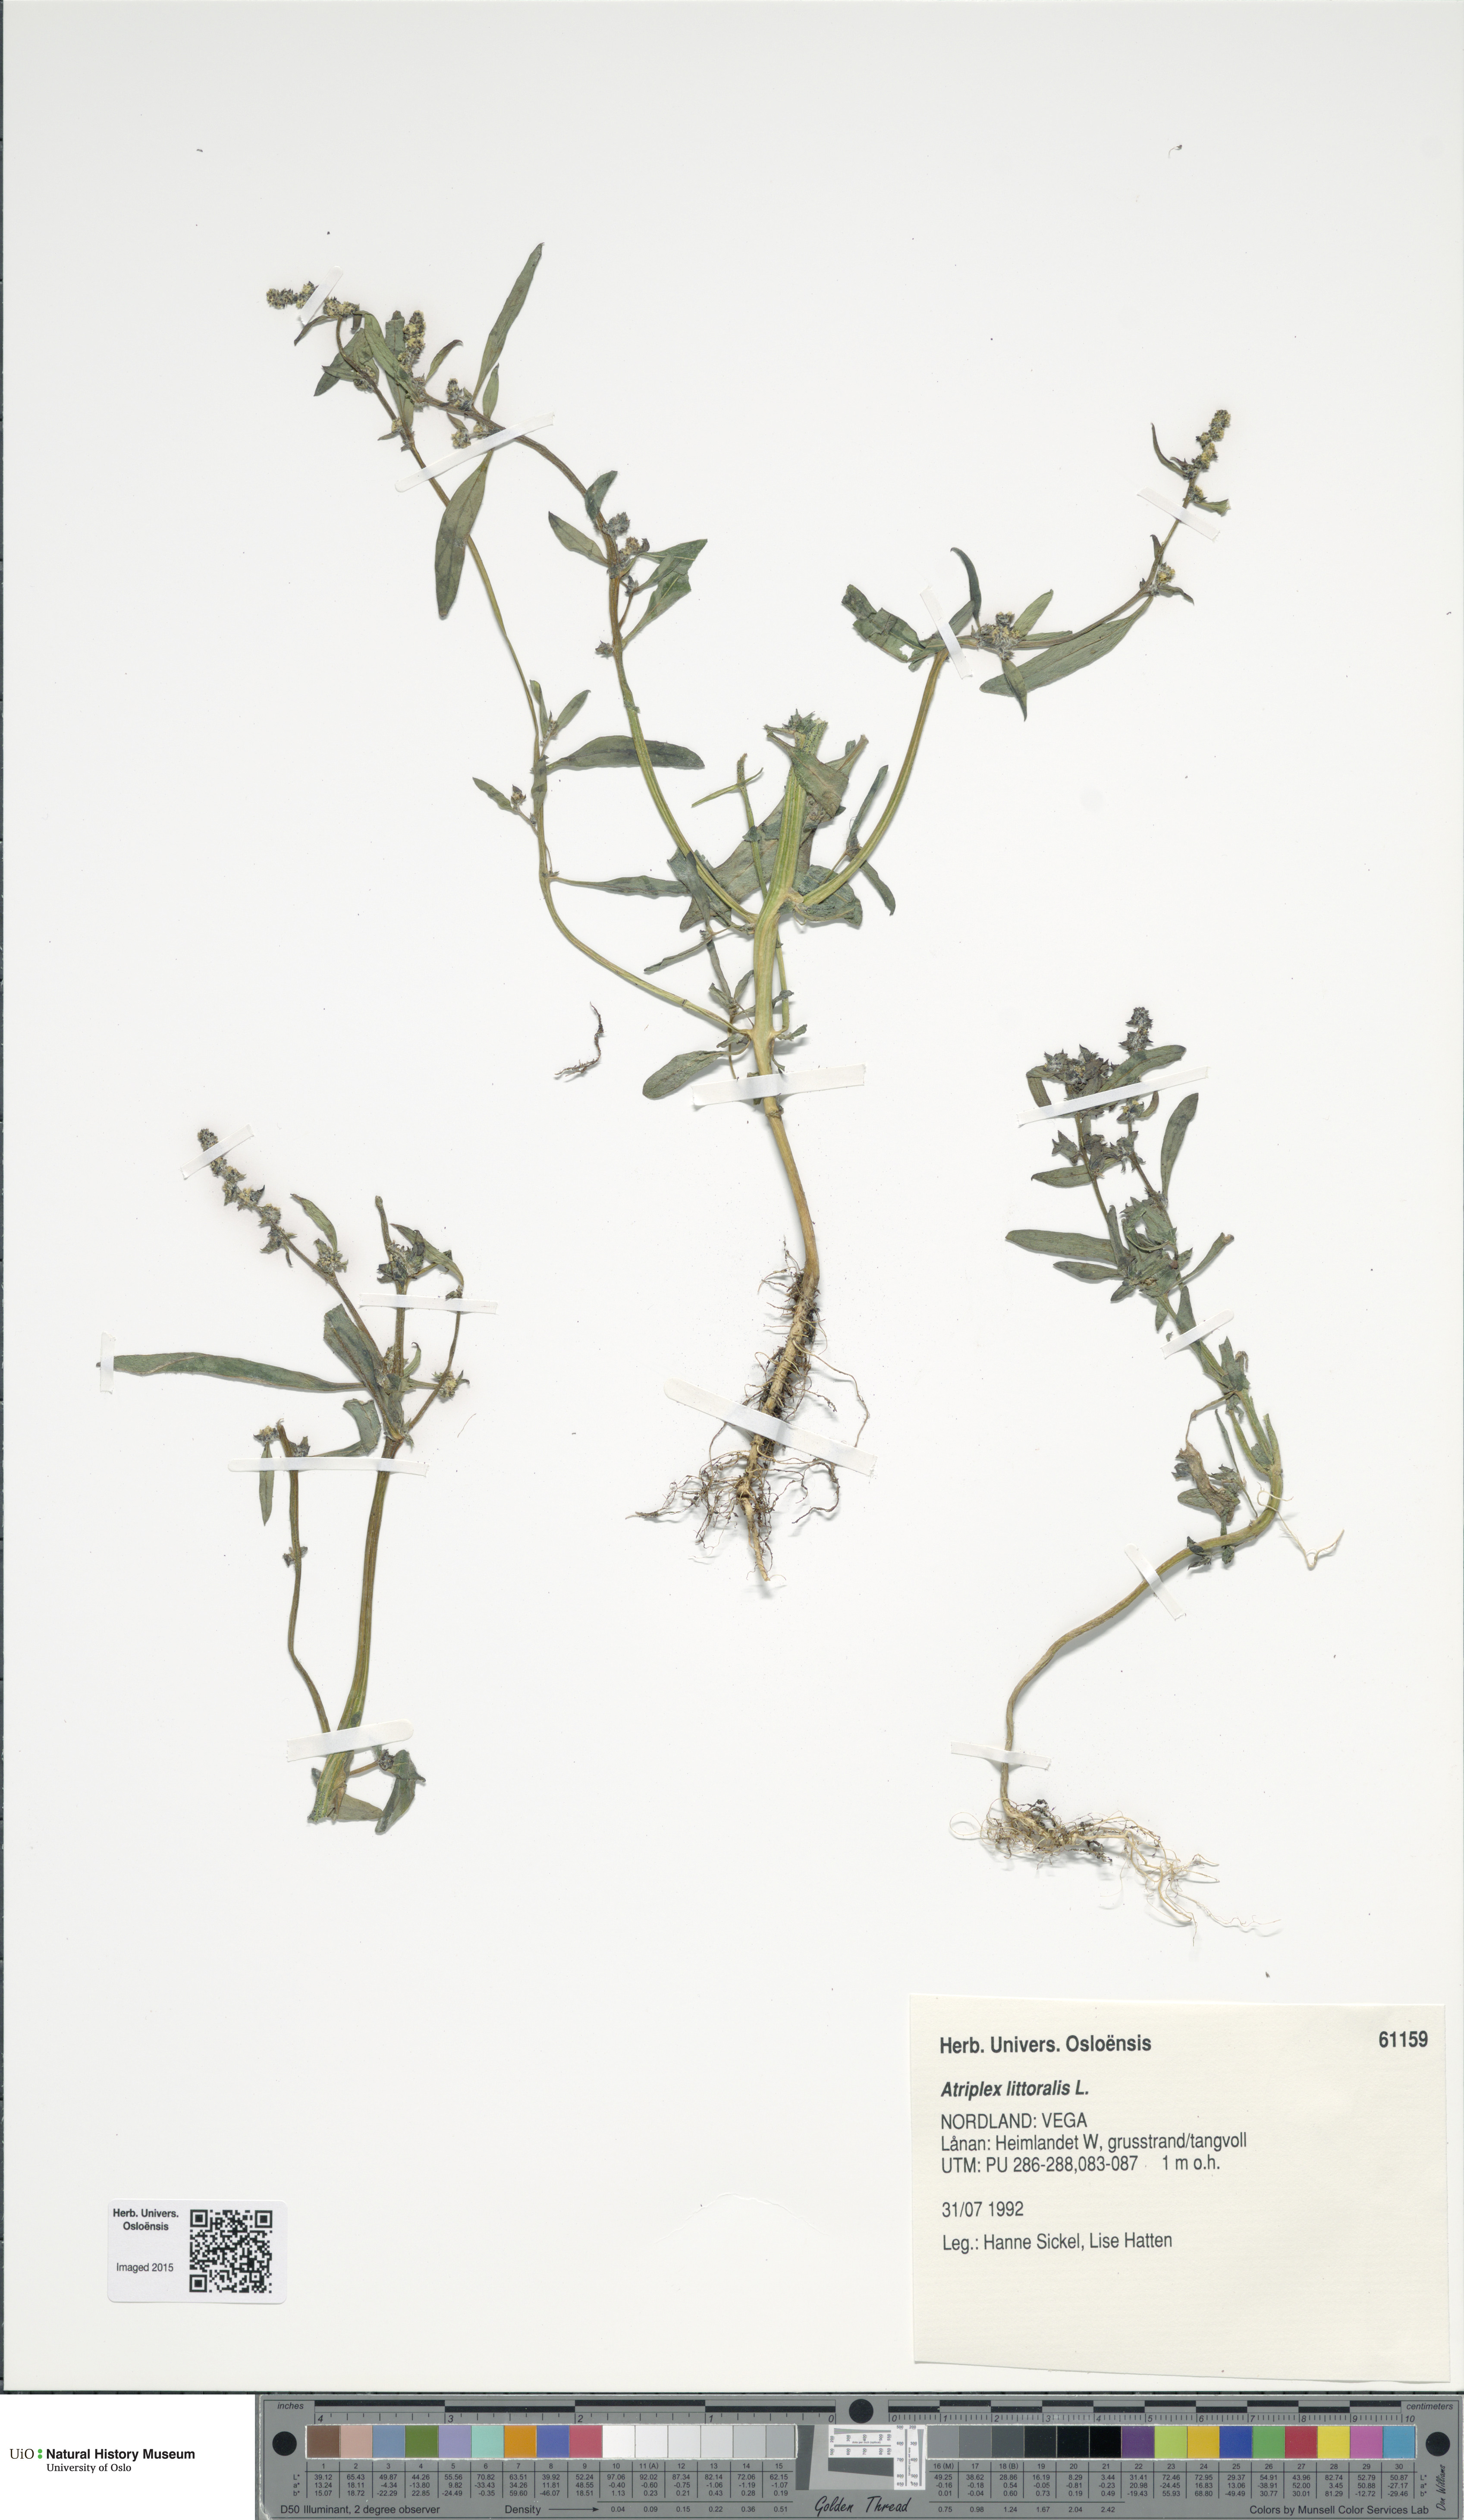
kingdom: Plantae
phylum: Tracheophyta
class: Magnoliopsida
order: Caryophyllales
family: Amaranthaceae
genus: Atriplex
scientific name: Atriplex littoralis
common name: Grass-leaved orache
